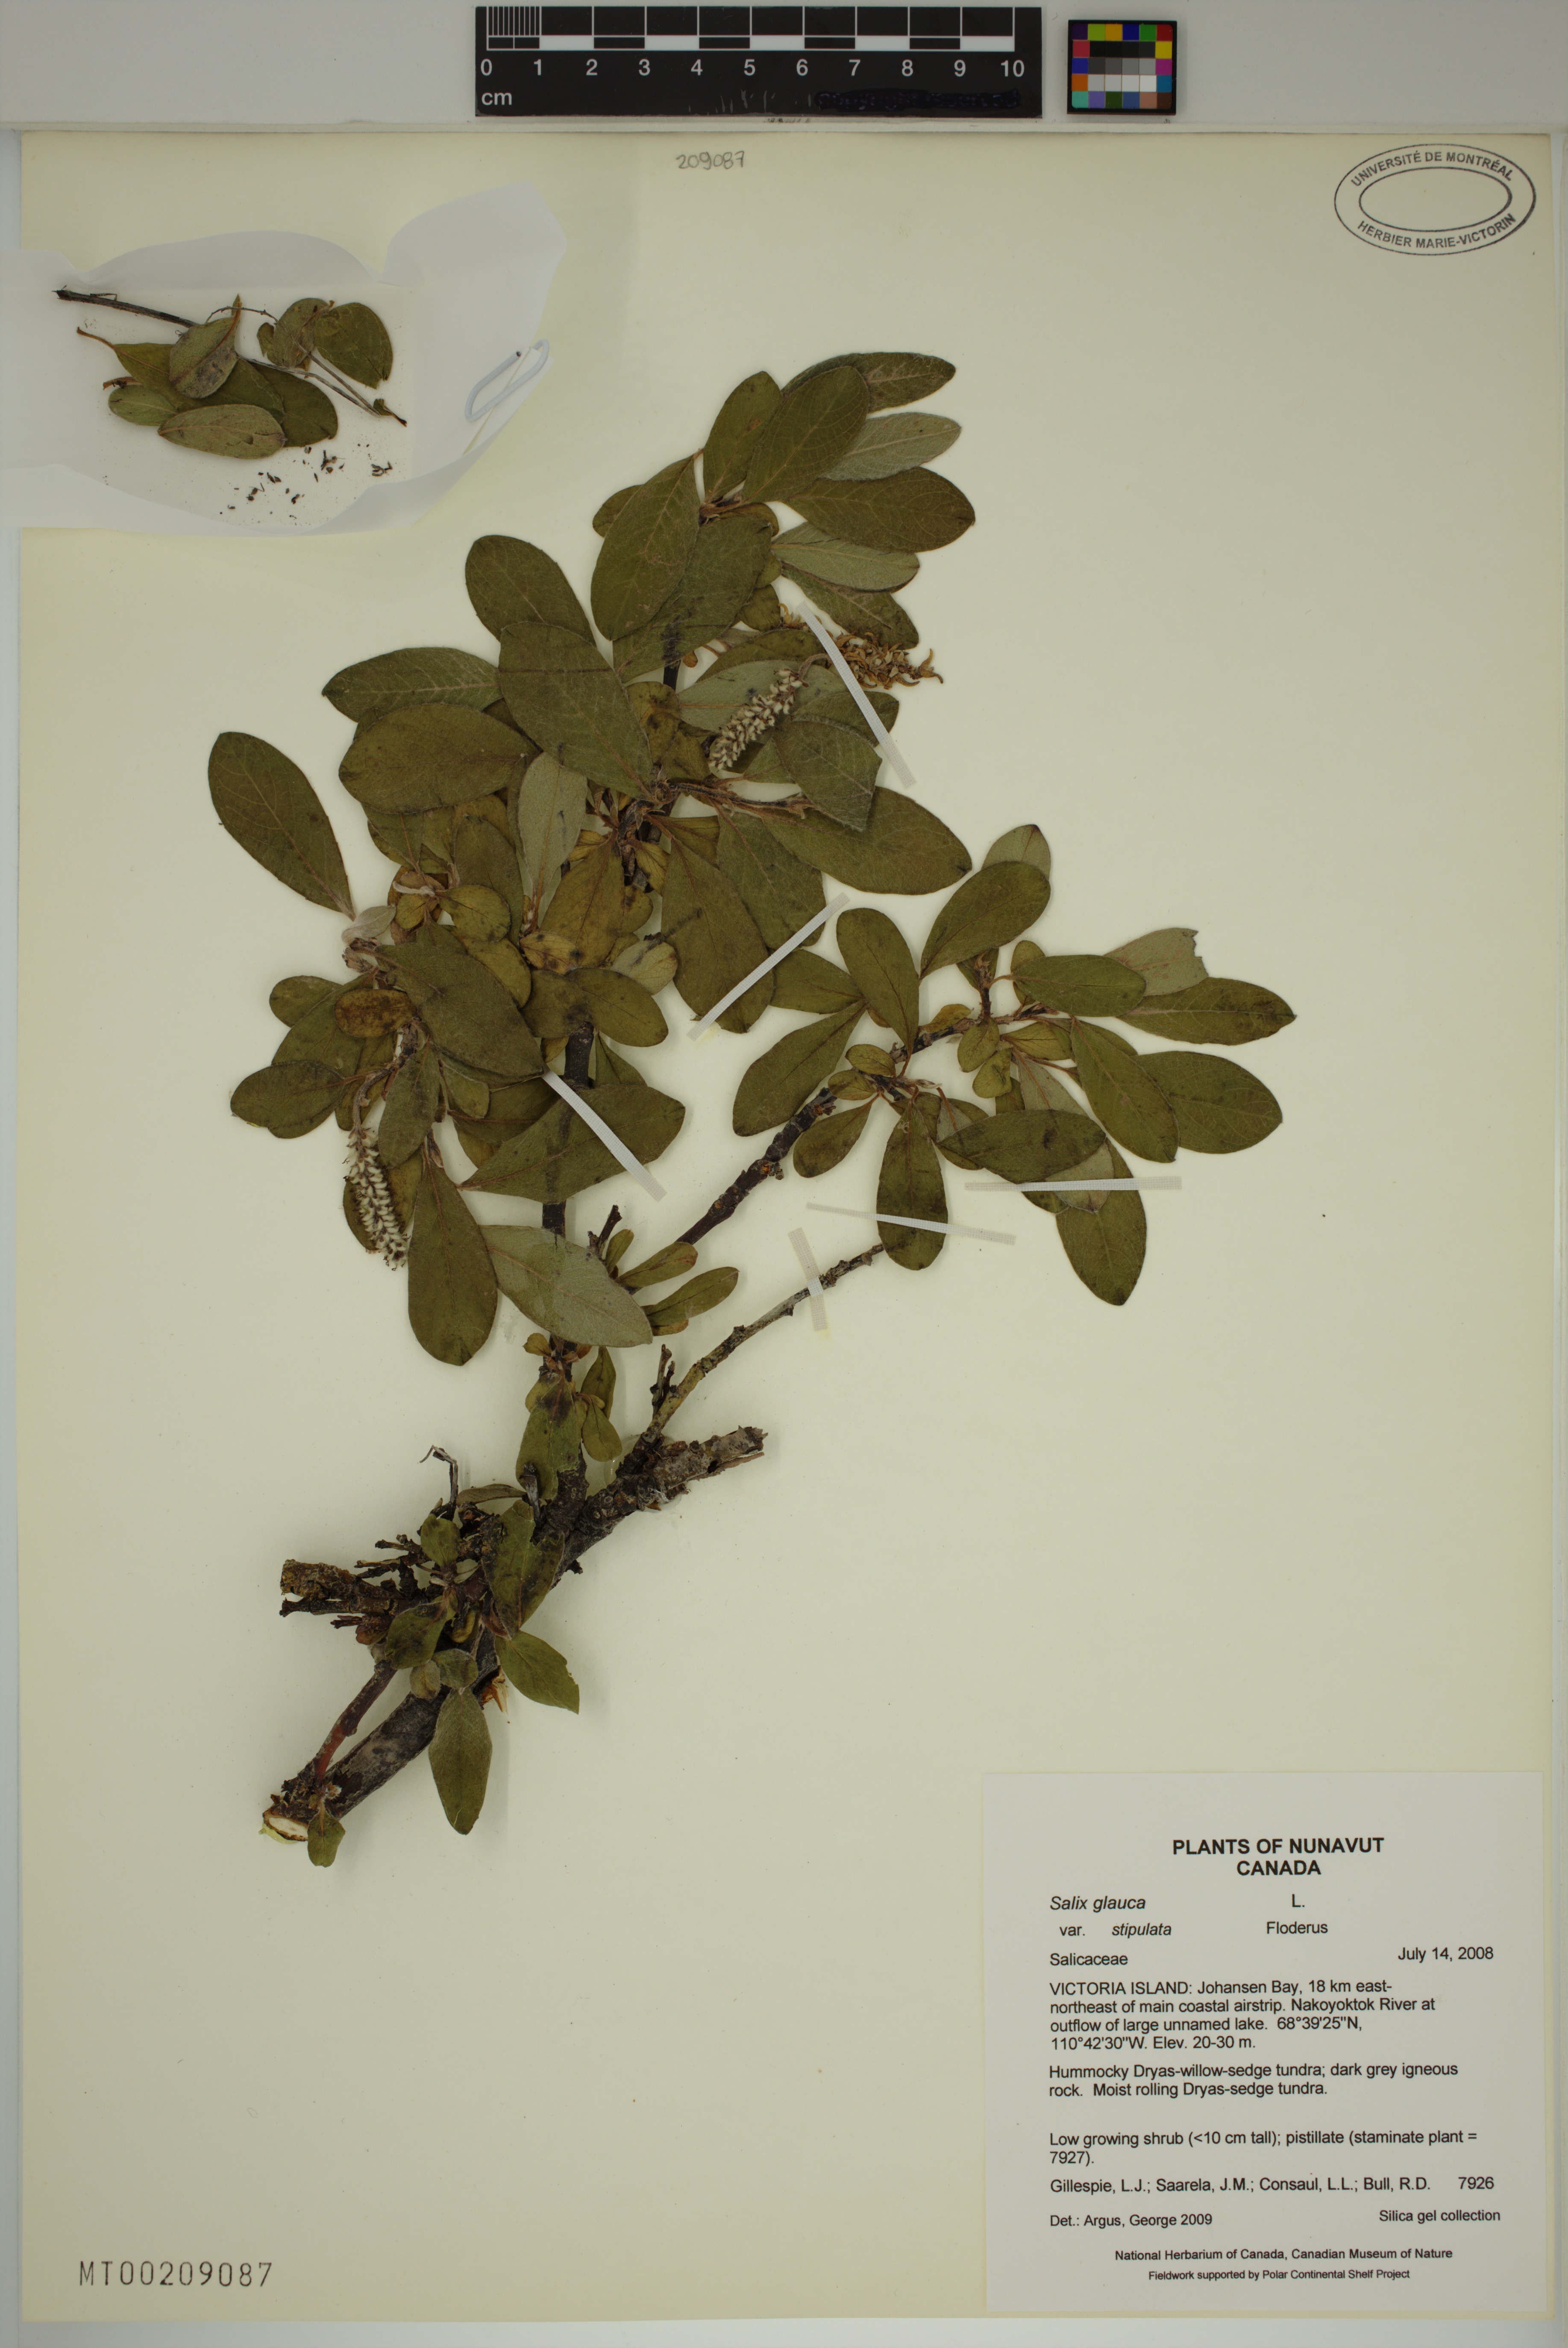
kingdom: Plantae
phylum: Tracheophyta
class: Magnoliopsida
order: Malpighiales
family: Salicaceae
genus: Salix
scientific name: Salix glauca
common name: Glaucous willow
